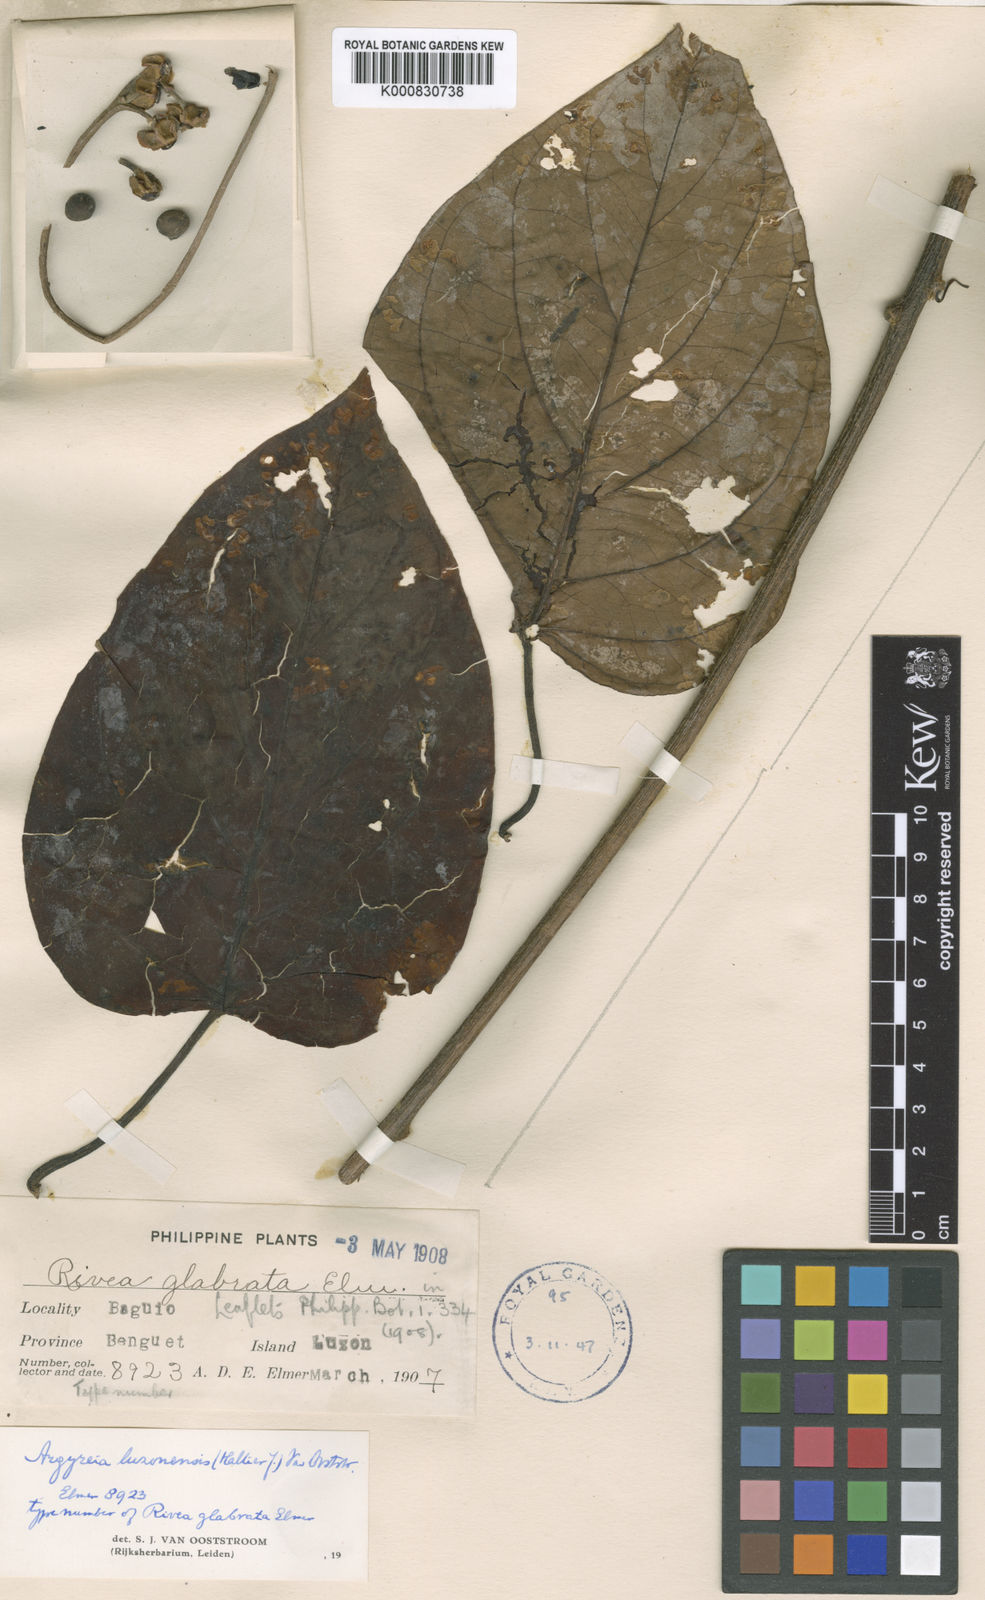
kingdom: Plantae
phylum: Tracheophyta
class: Magnoliopsida
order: Solanales
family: Convolvulaceae
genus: Argyreia
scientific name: Argyreia luzonensis
